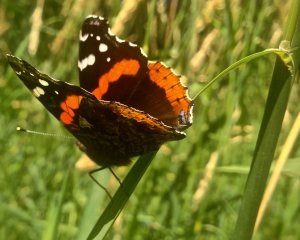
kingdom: Animalia
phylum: Arthropoda
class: Insecta
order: Lepidoptera
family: Nymphalidae
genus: Vanessa
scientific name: Vanessa atalanta
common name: Red Admiral
